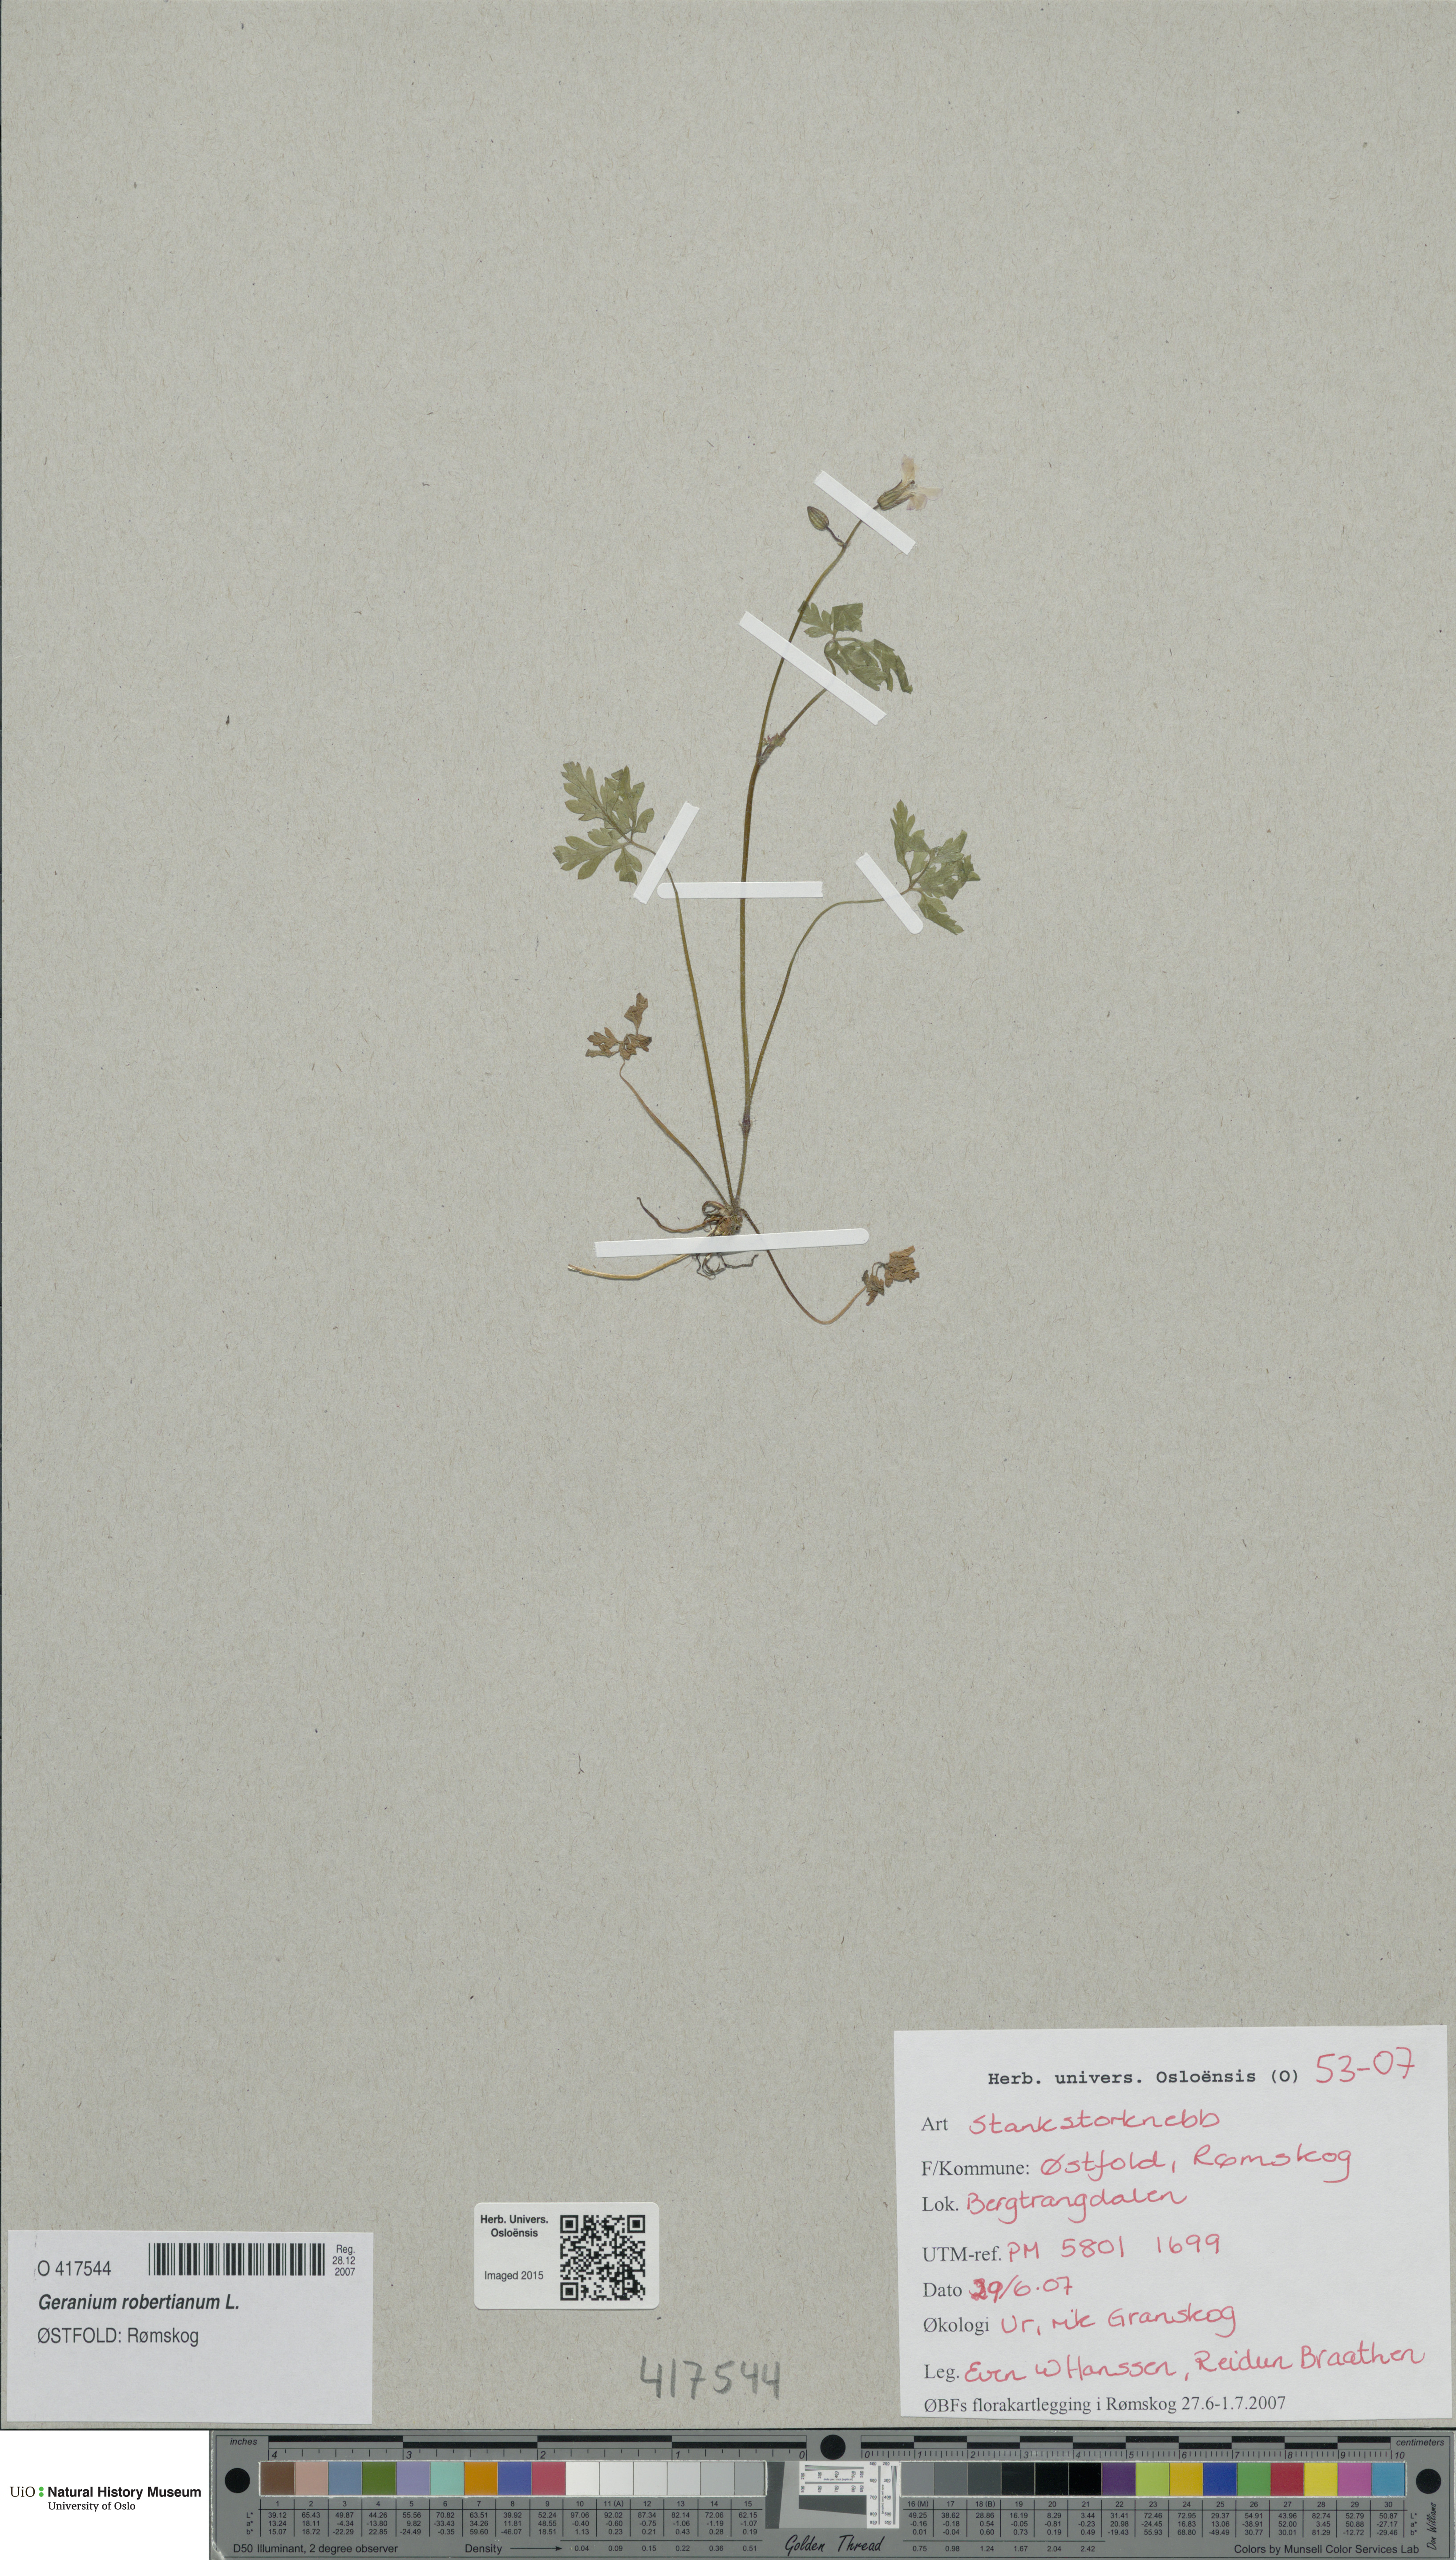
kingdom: Plantae
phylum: Tracheophyta
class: Magnoliopsida
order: Geraniales
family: Geraniaceae
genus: Geranium
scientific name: Geranium robertianum
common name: Herb-robert
